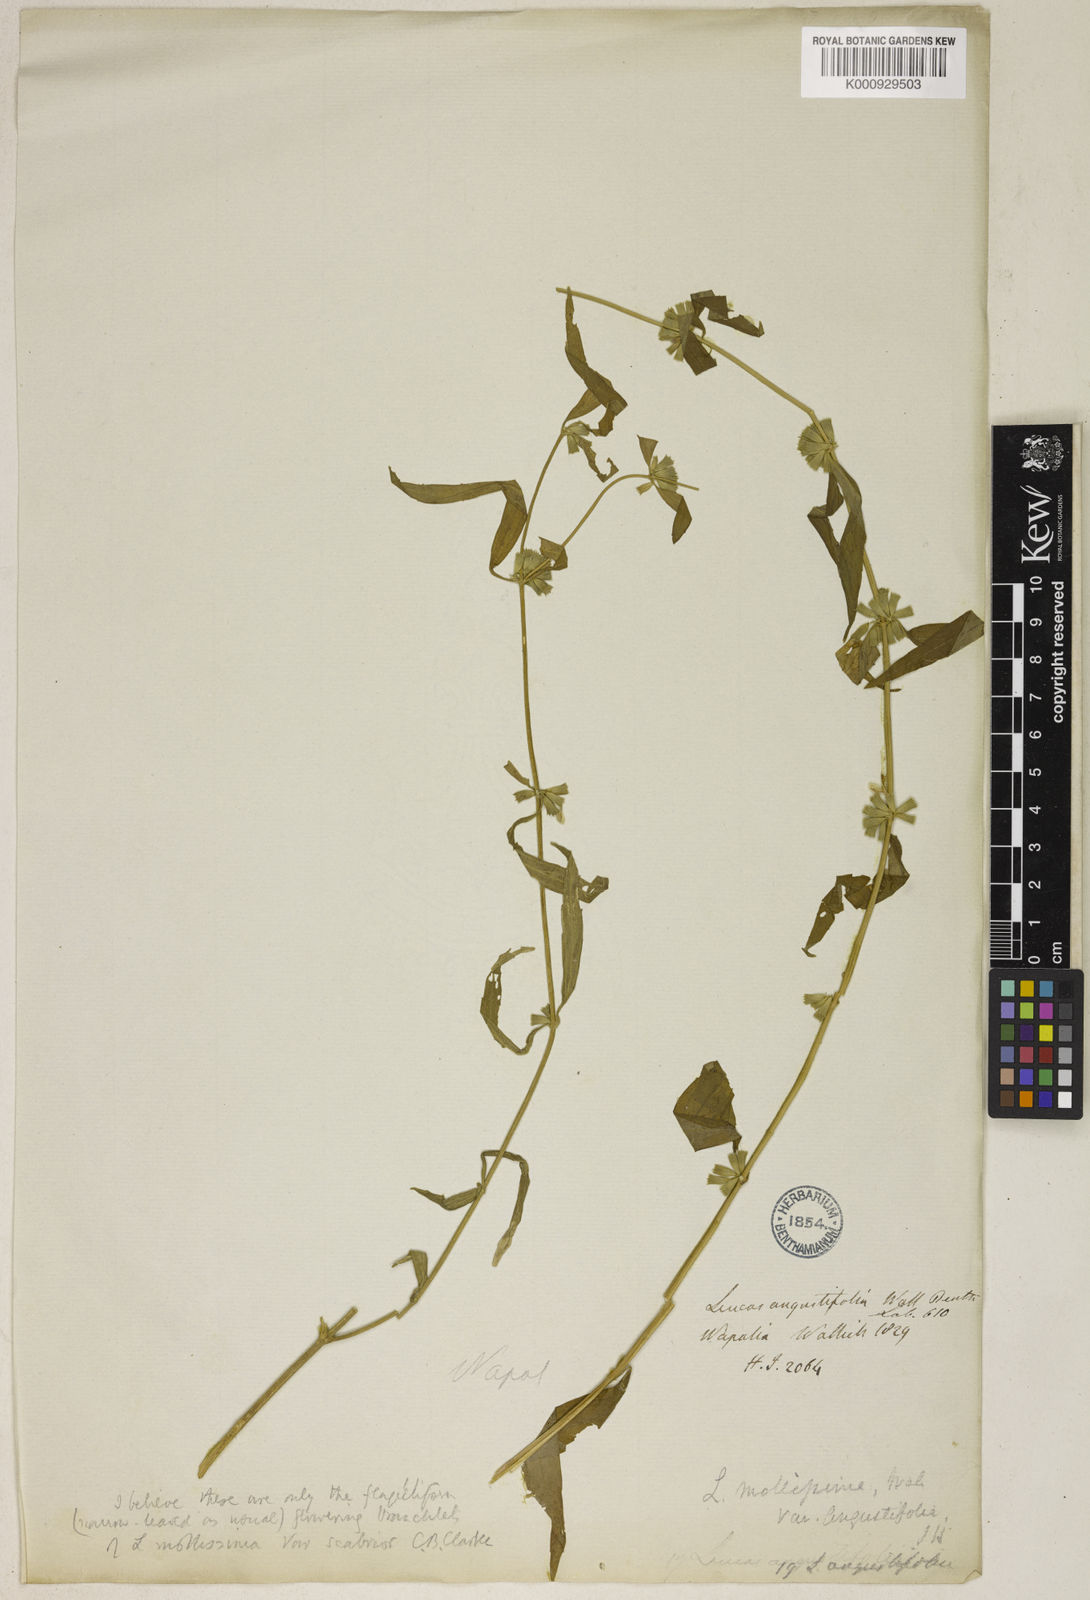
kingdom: Plantae
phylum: Tracheophyta
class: Magnoliopsida
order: Lamiales
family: Lamiaceae
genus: Leucas
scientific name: Leucas
